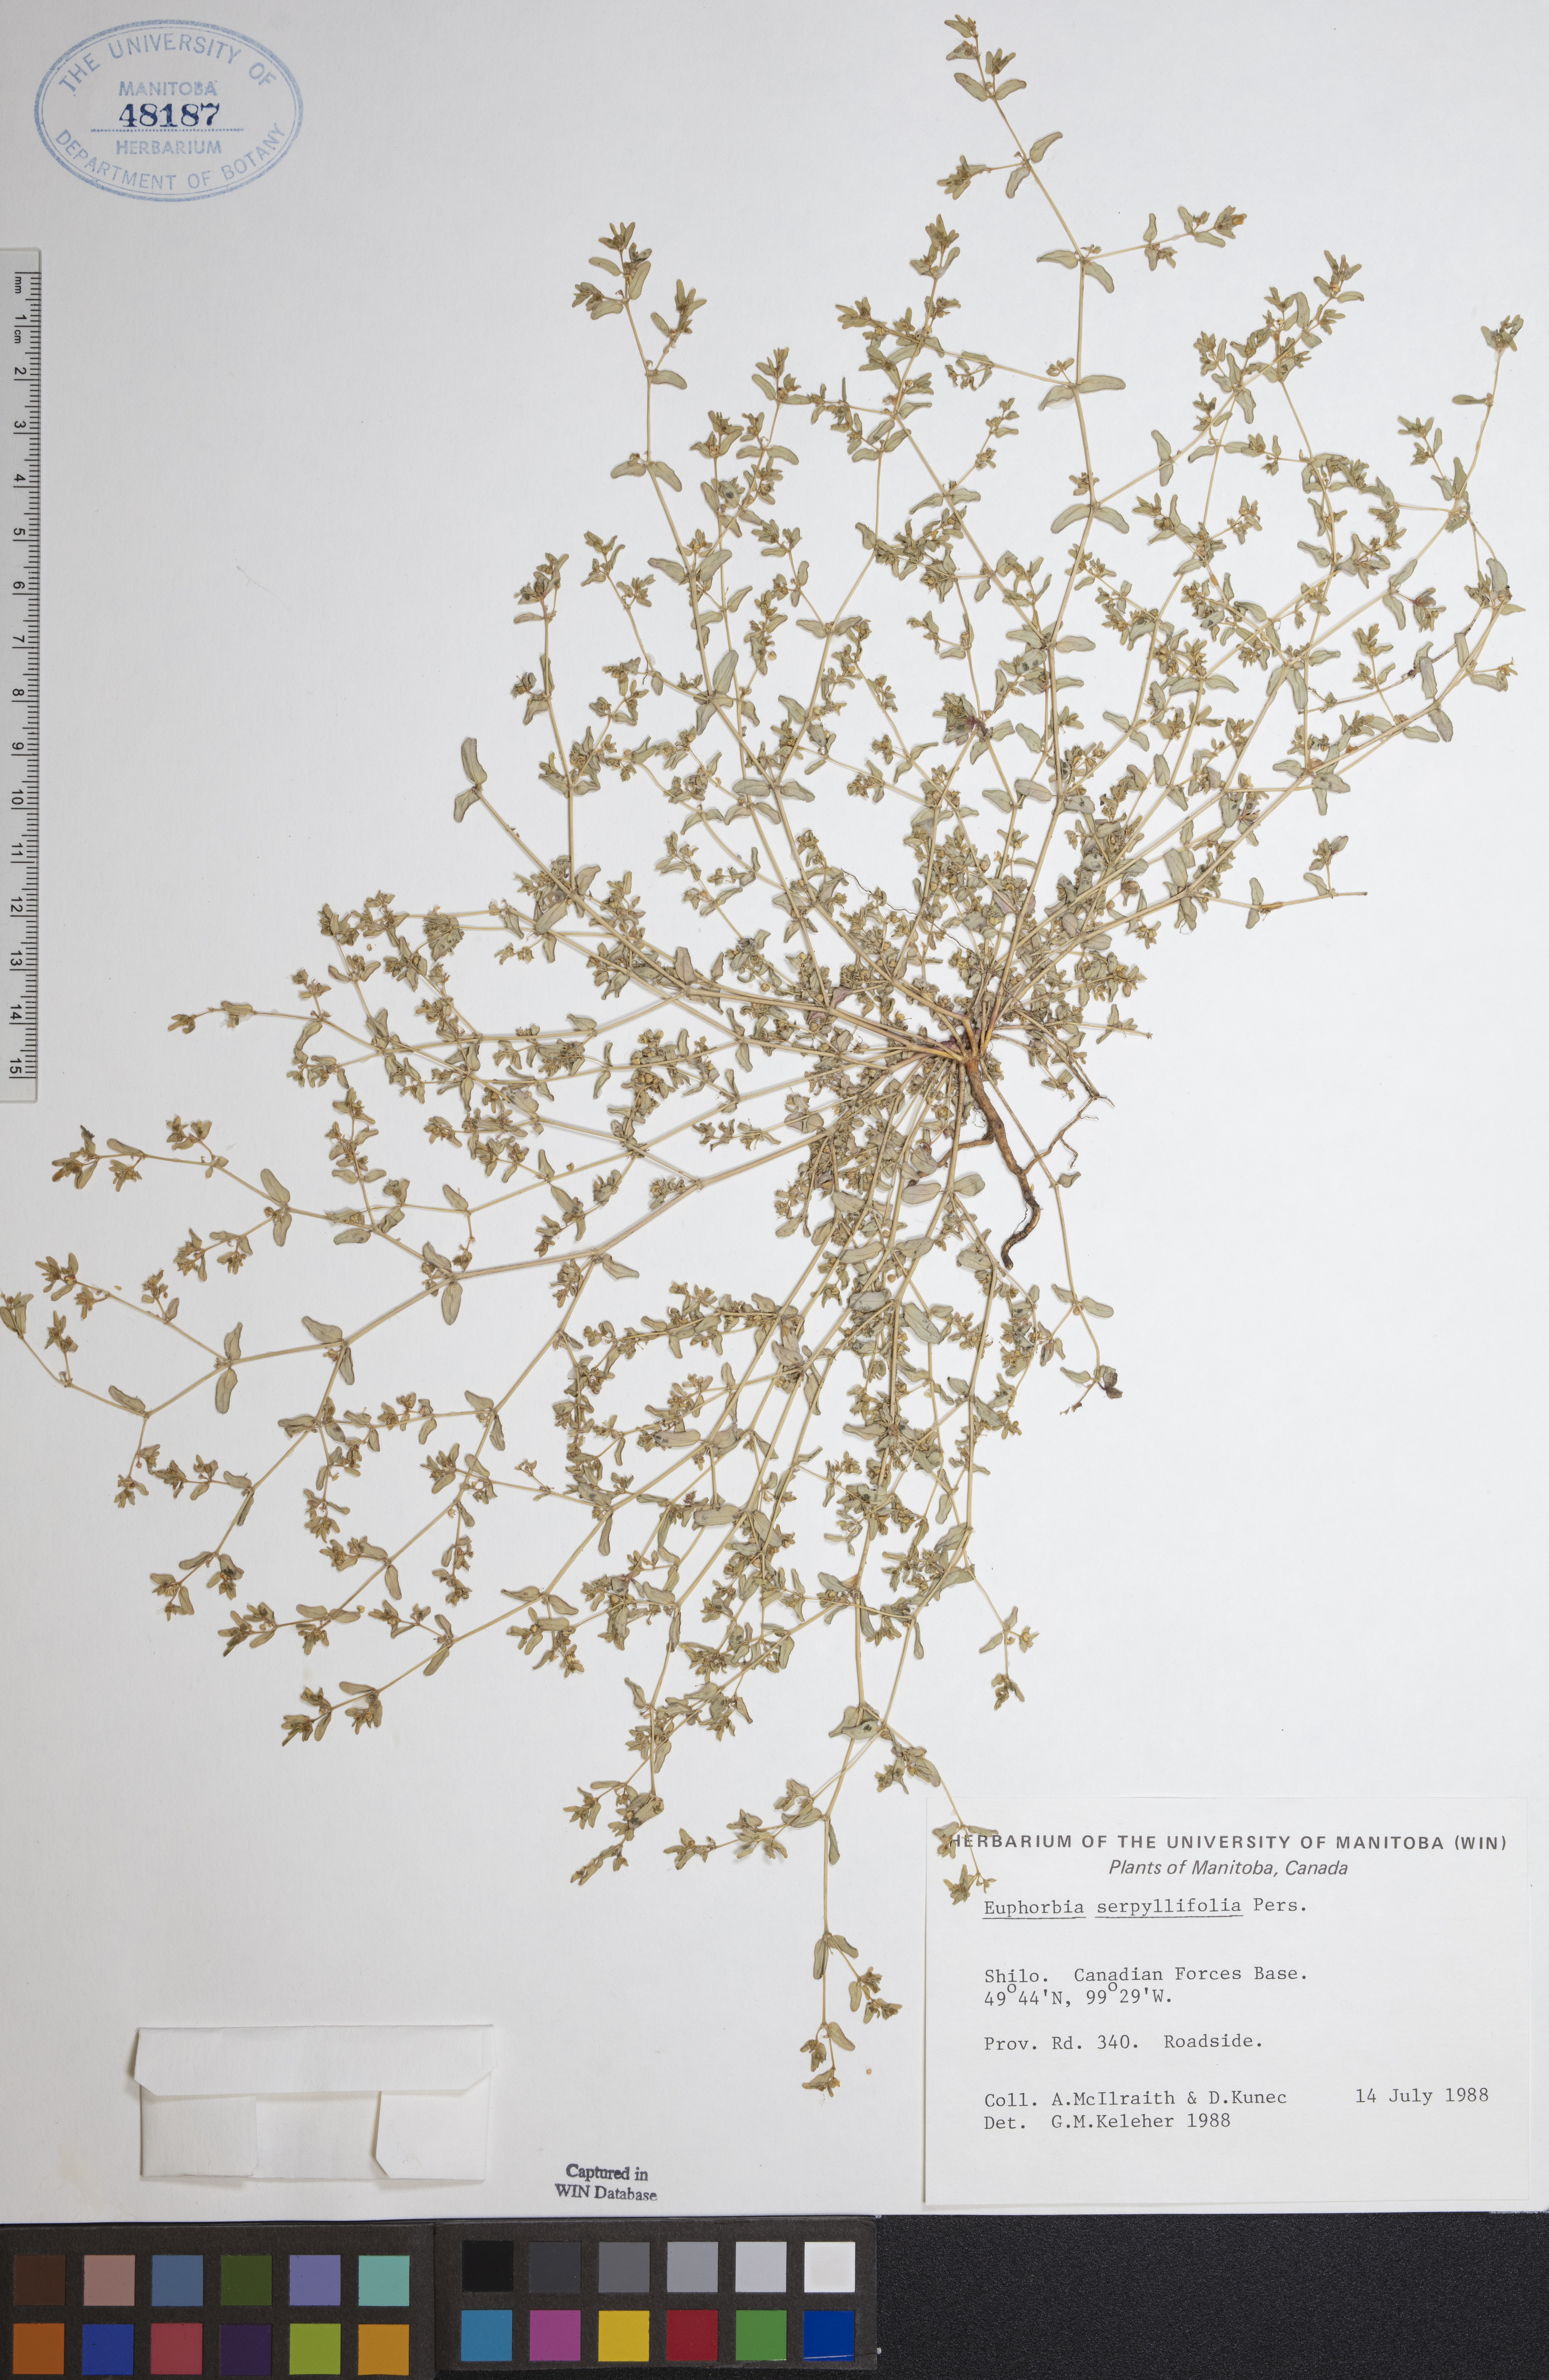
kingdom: Plantae
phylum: Tracheophyta
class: Magnoliopsida
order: Malpighiales
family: Euphorbiaceae
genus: Euphorbia
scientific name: Euphorbia serpillifolia
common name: Thyme-leaf spurge
